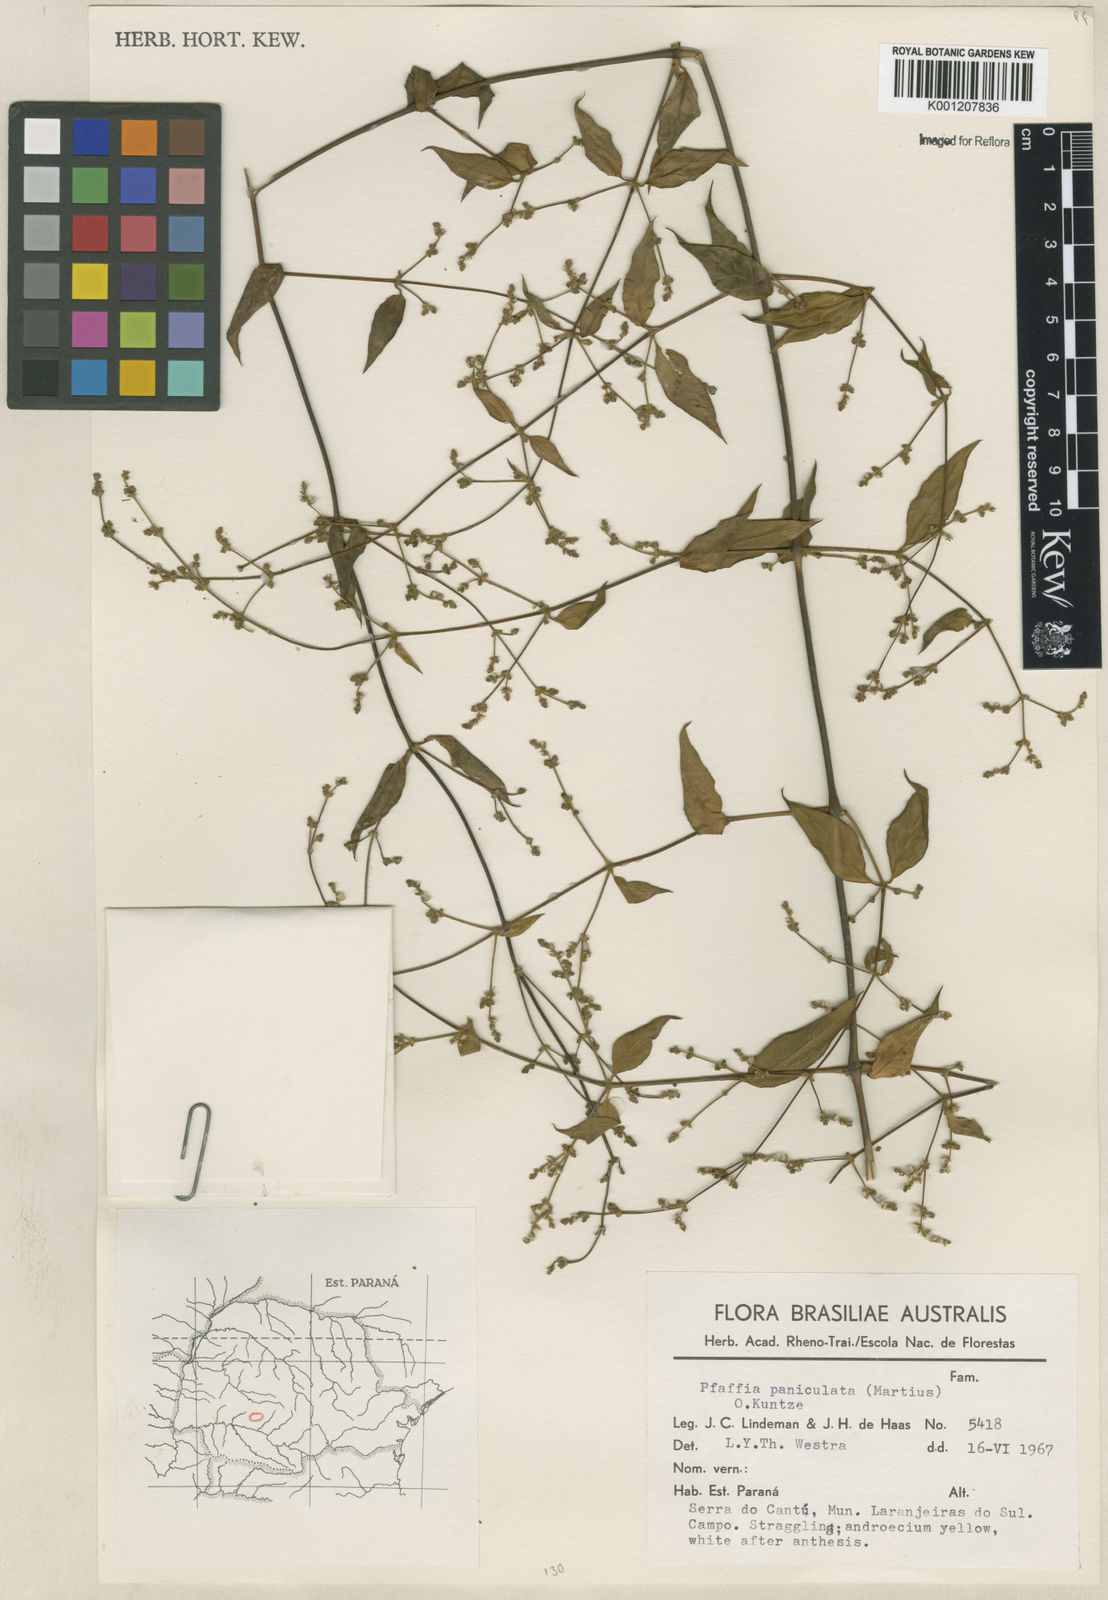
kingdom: Plantae
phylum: Tracheophyta
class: Magnoliopsida
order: Caryophyllales
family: Amaranthaceae
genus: Hebanthe
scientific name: Hebanthe erianthos
